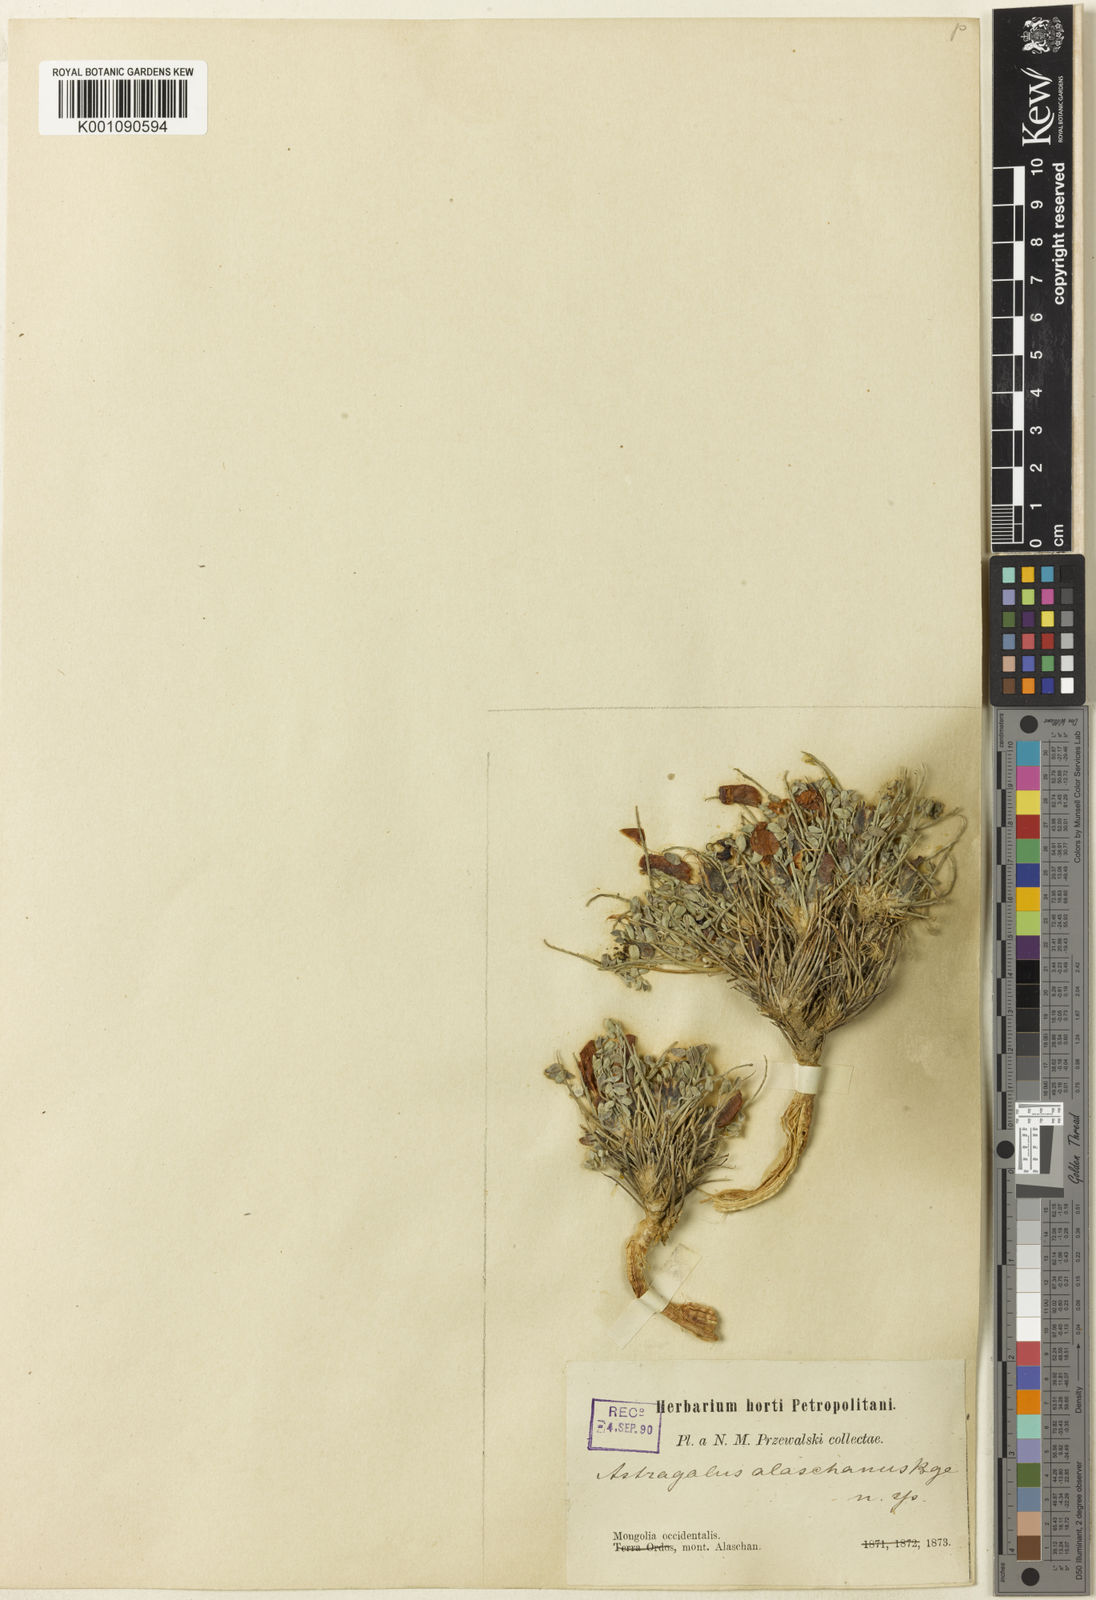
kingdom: Plantae
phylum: Tracheophyta
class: Magnoliopsida
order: Fabales
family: Fabaceae
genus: Astragalus
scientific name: Astragalus
